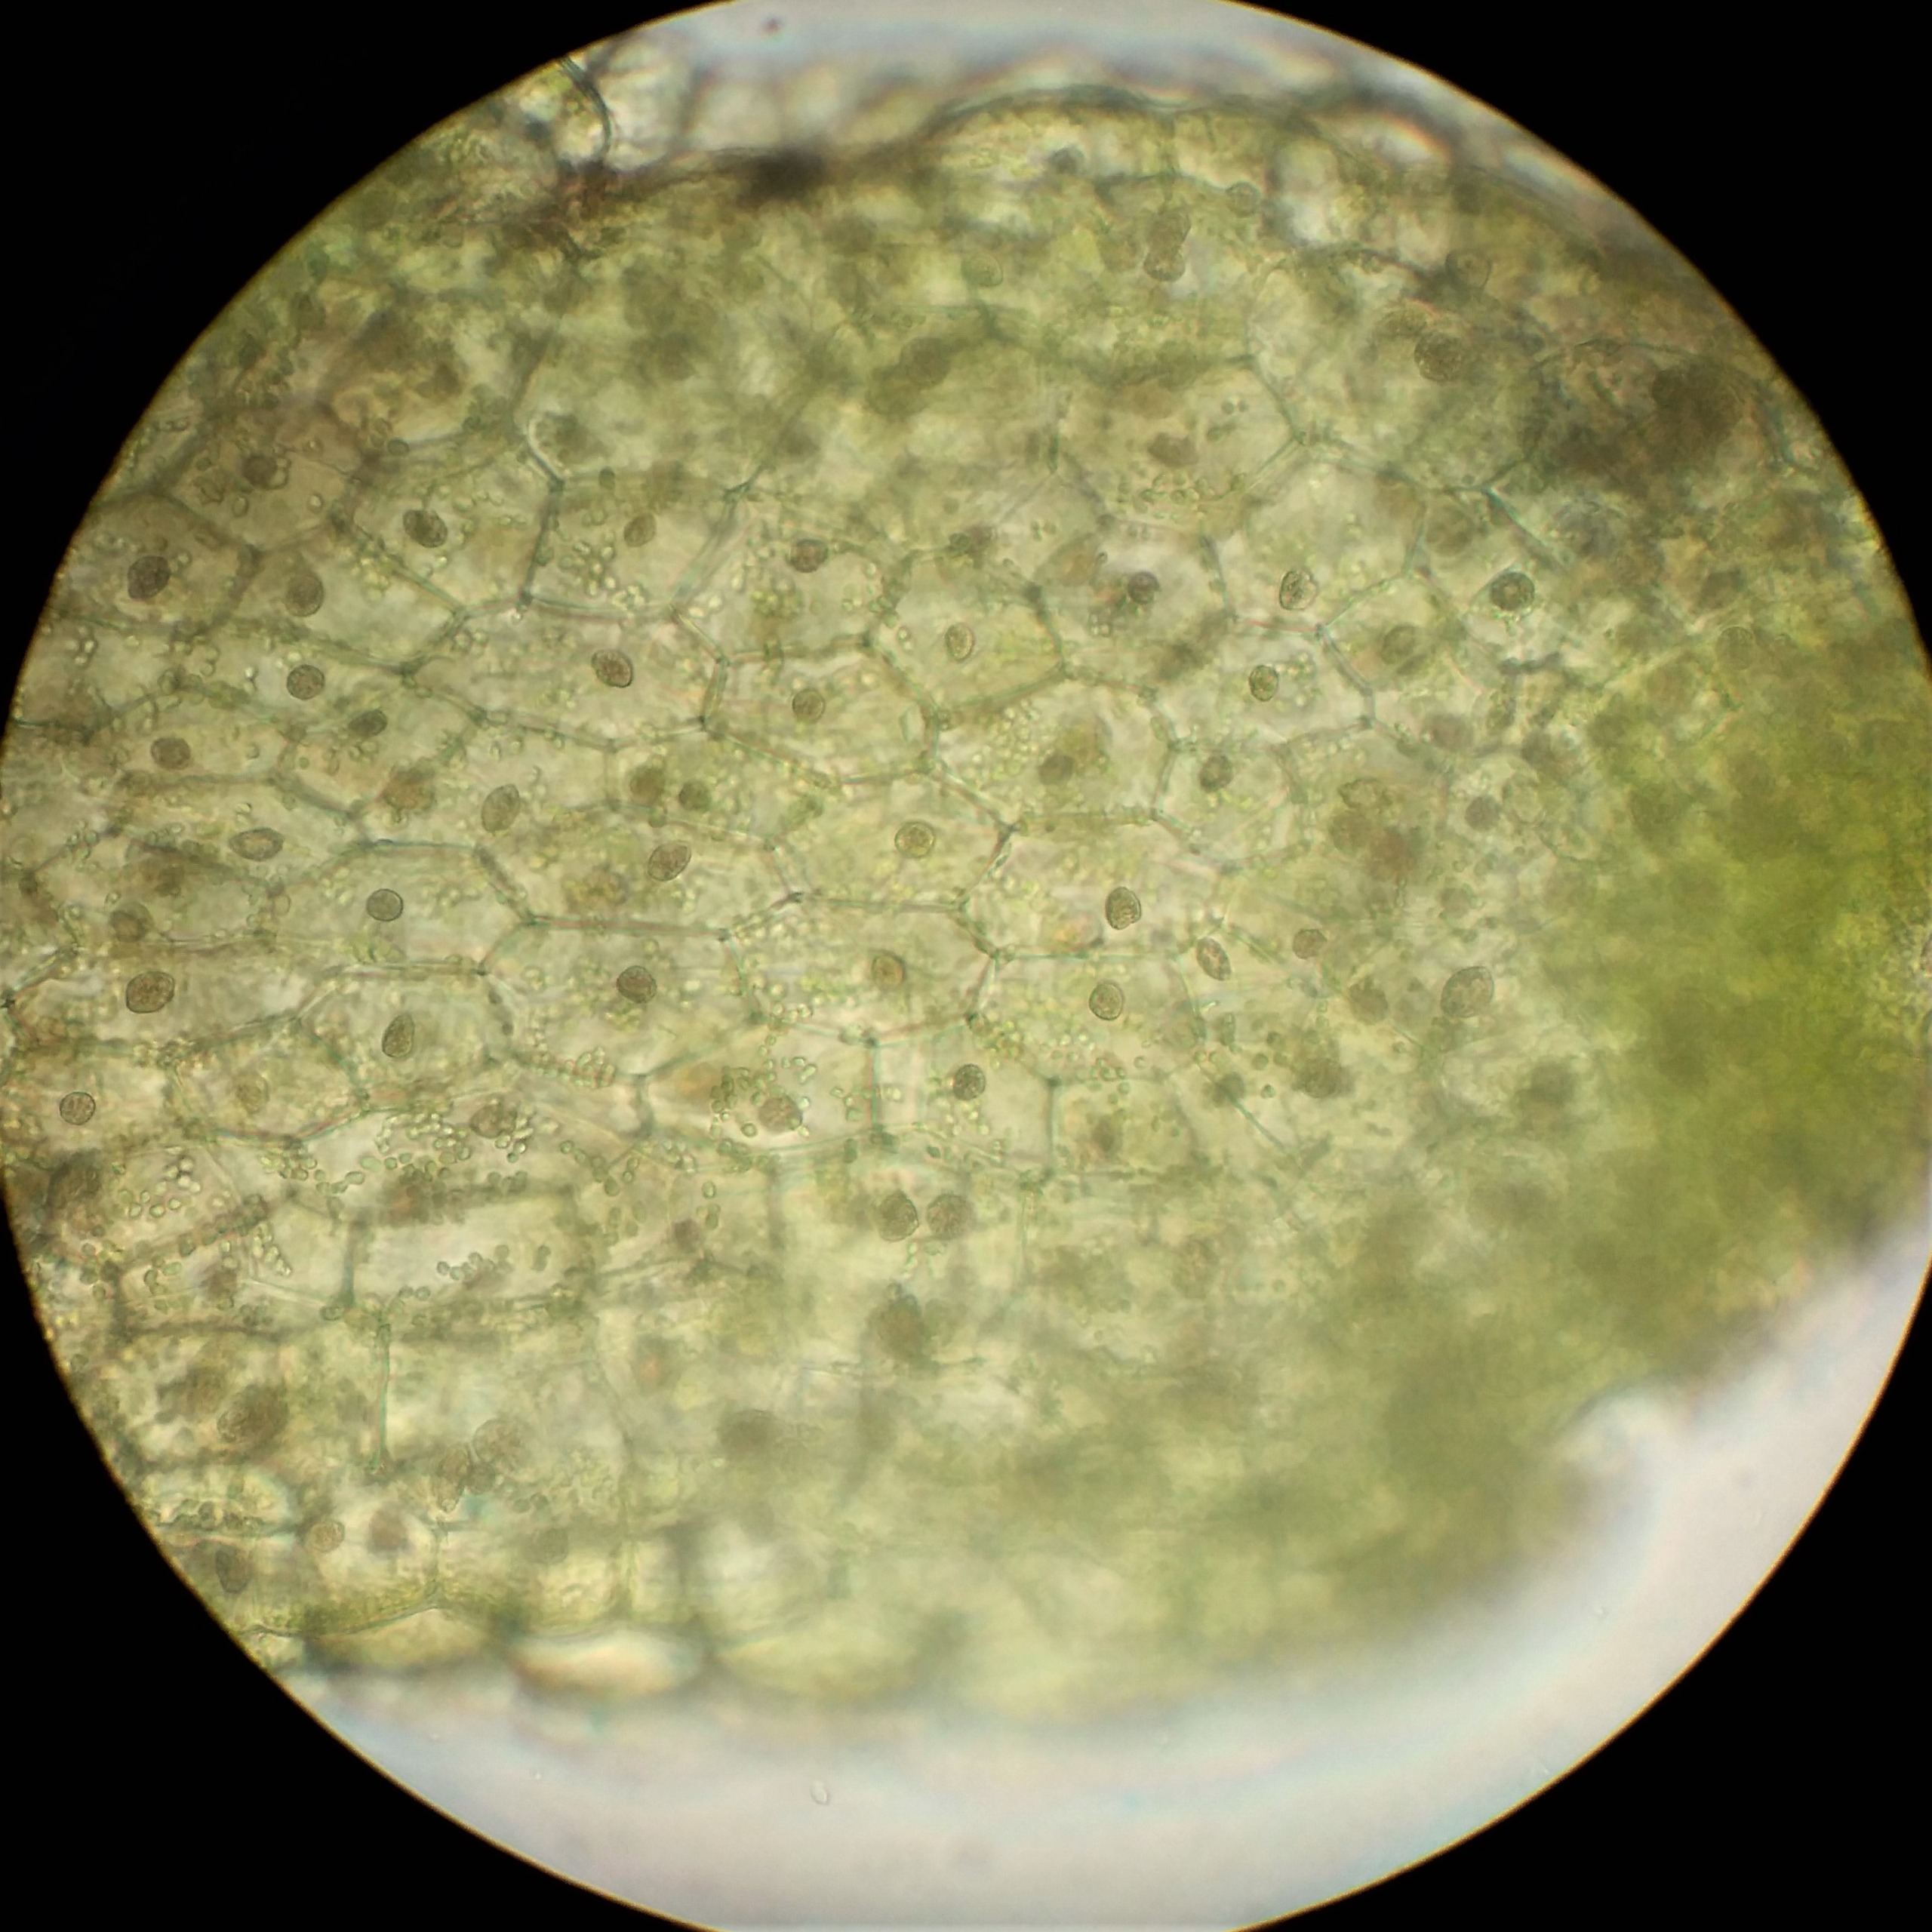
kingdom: Plantae
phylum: Marchantiophyta
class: Jungermanniopsida
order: Metzgeriales
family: Aneuraceae
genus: Riccardia
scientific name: Riccardia incurvata
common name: Rendet ribbeløs
